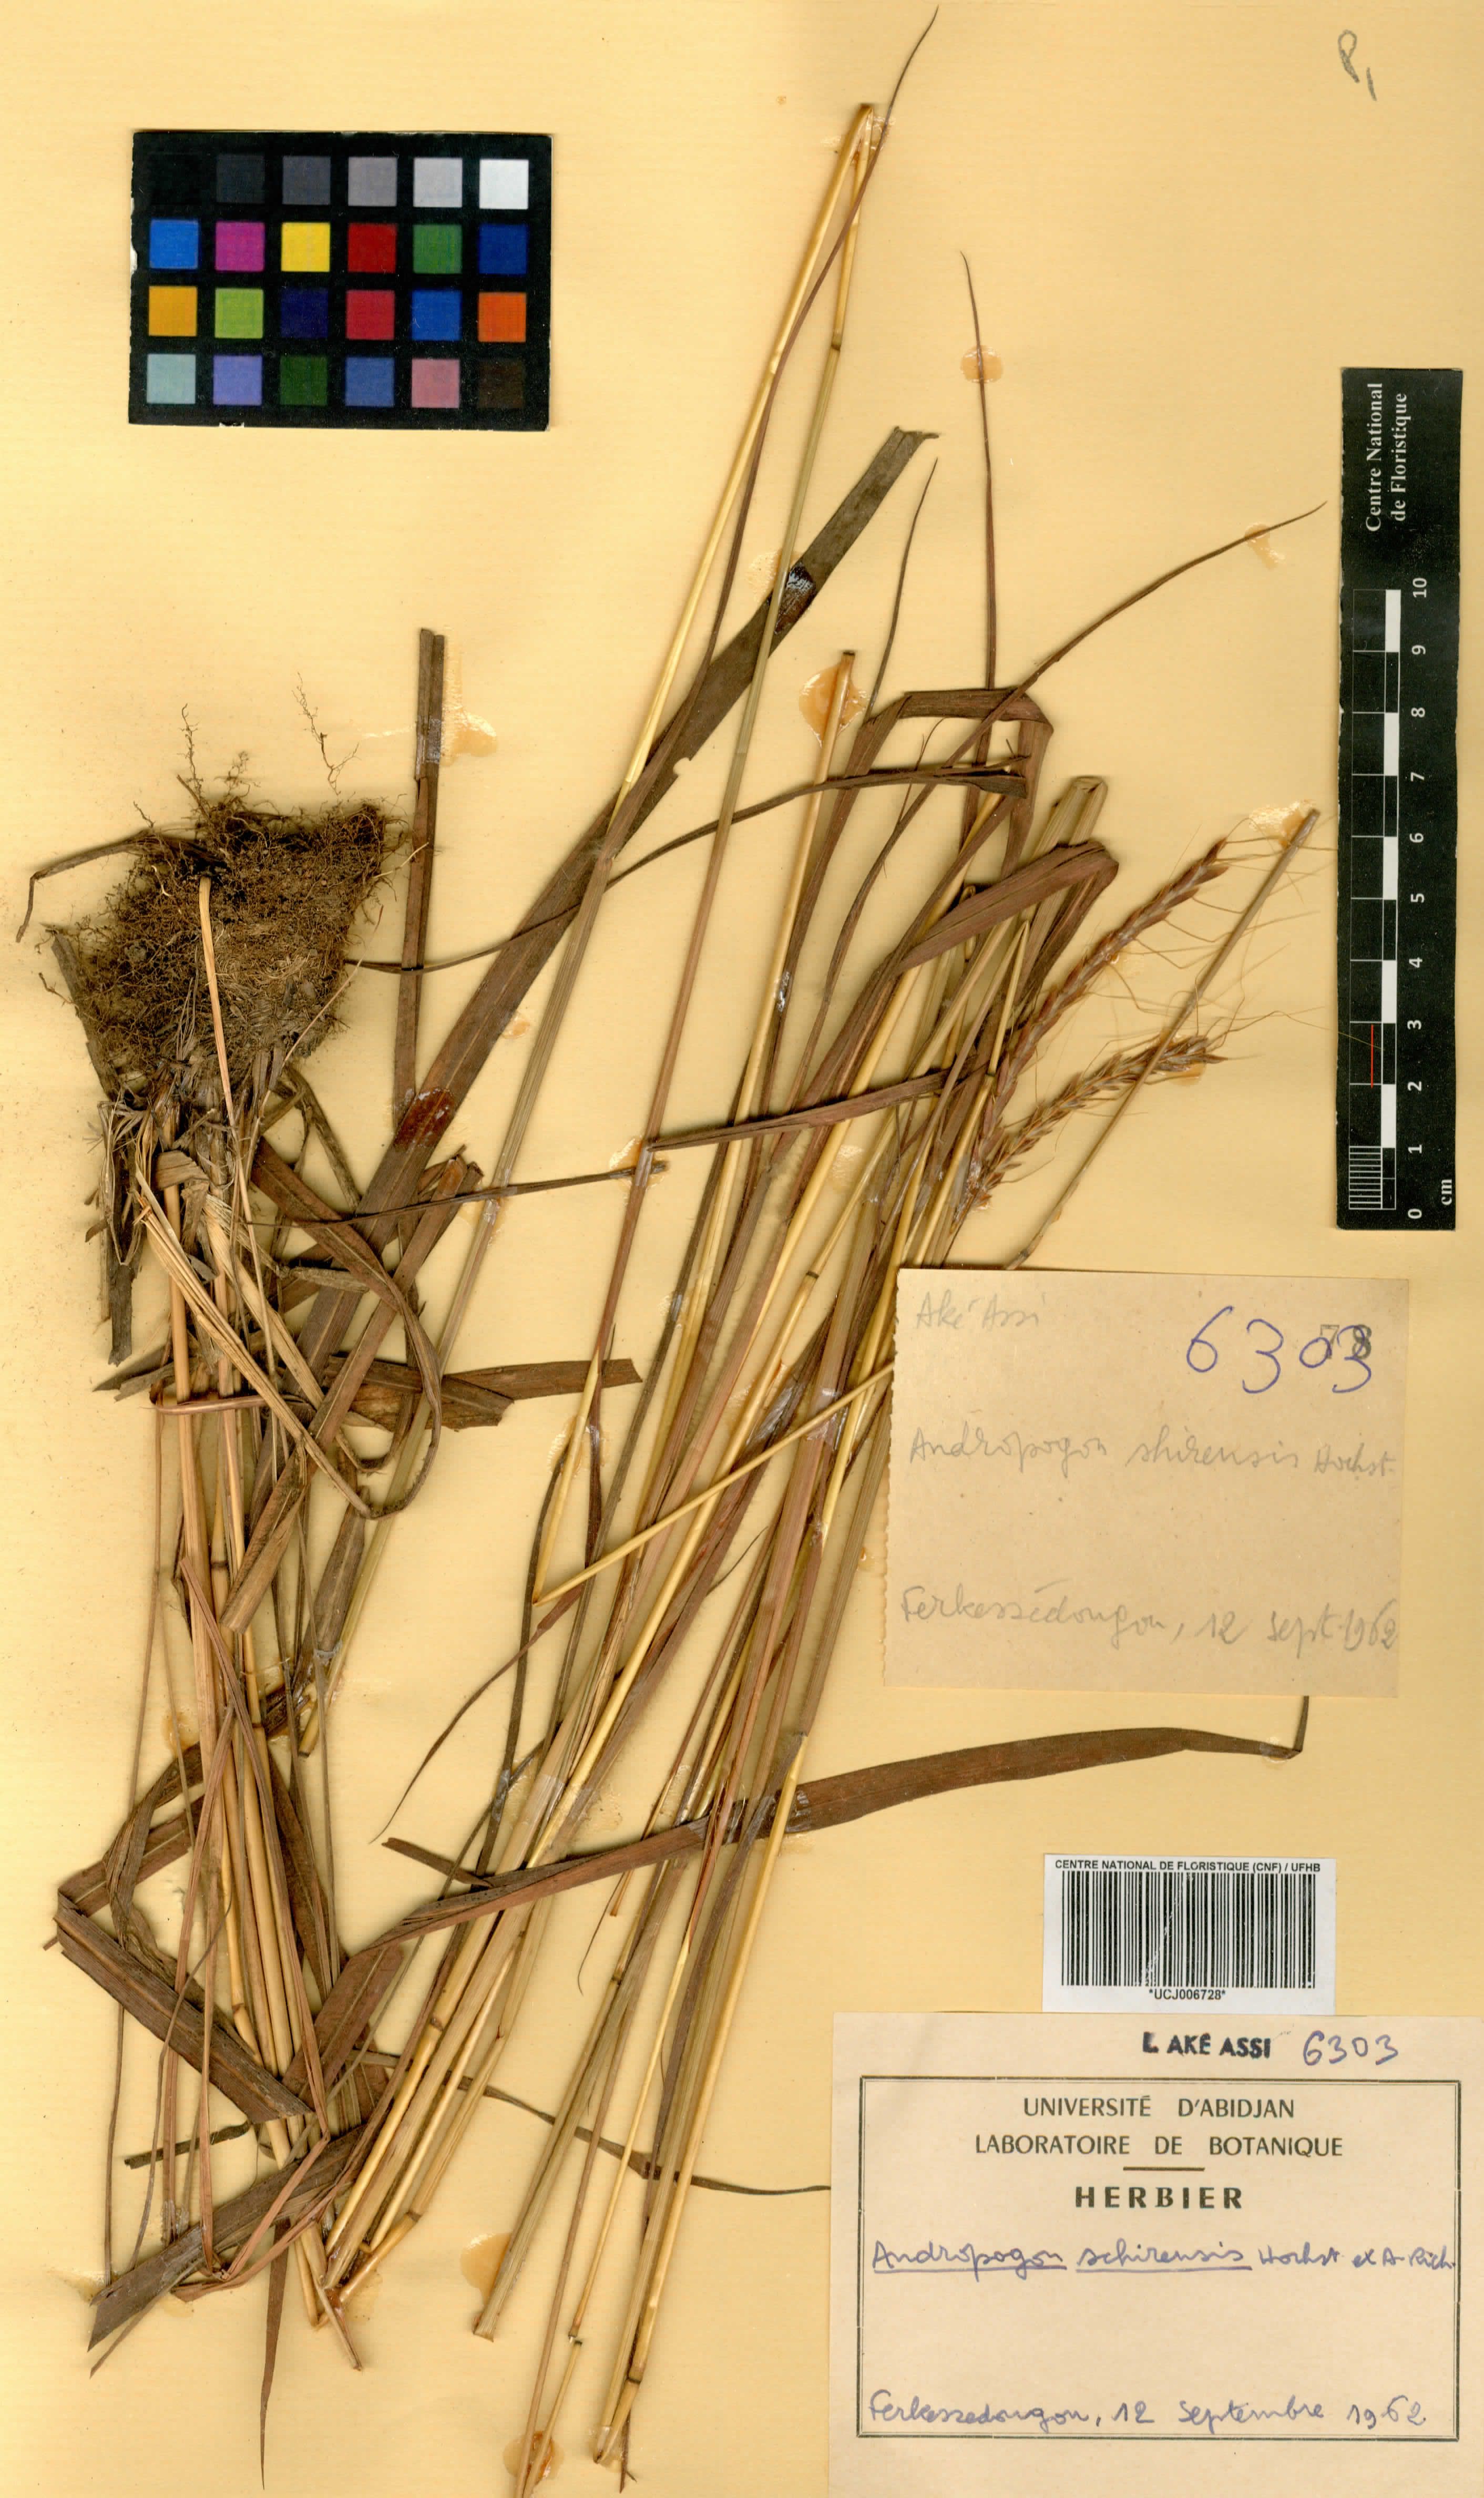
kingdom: Plantae
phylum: Tracheophyta
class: Liliopsida
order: Poales
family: Poaceae
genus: Andropogon
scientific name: Andropogon schirensis
